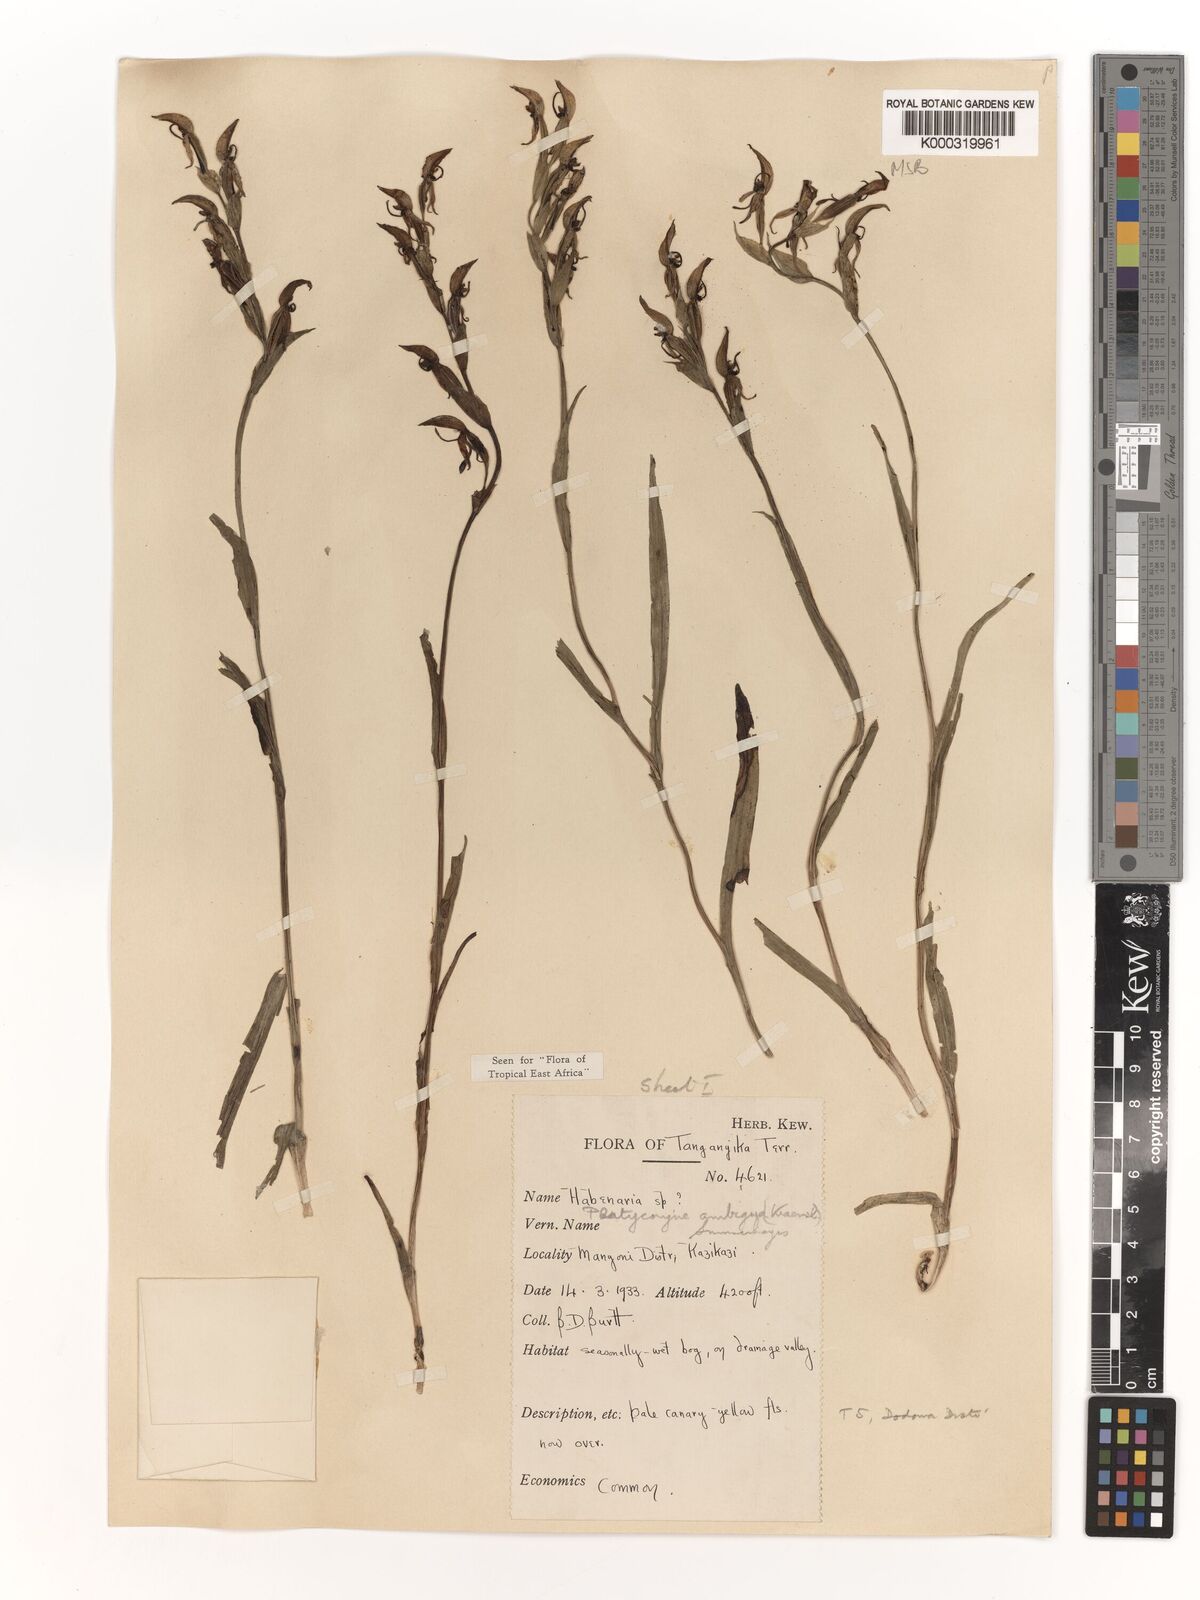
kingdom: Plantae
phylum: Tracheophyta
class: Liliopsida
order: Asparagales
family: Orchidaceae
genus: Platycoryne
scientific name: Platycoryne ambigua
